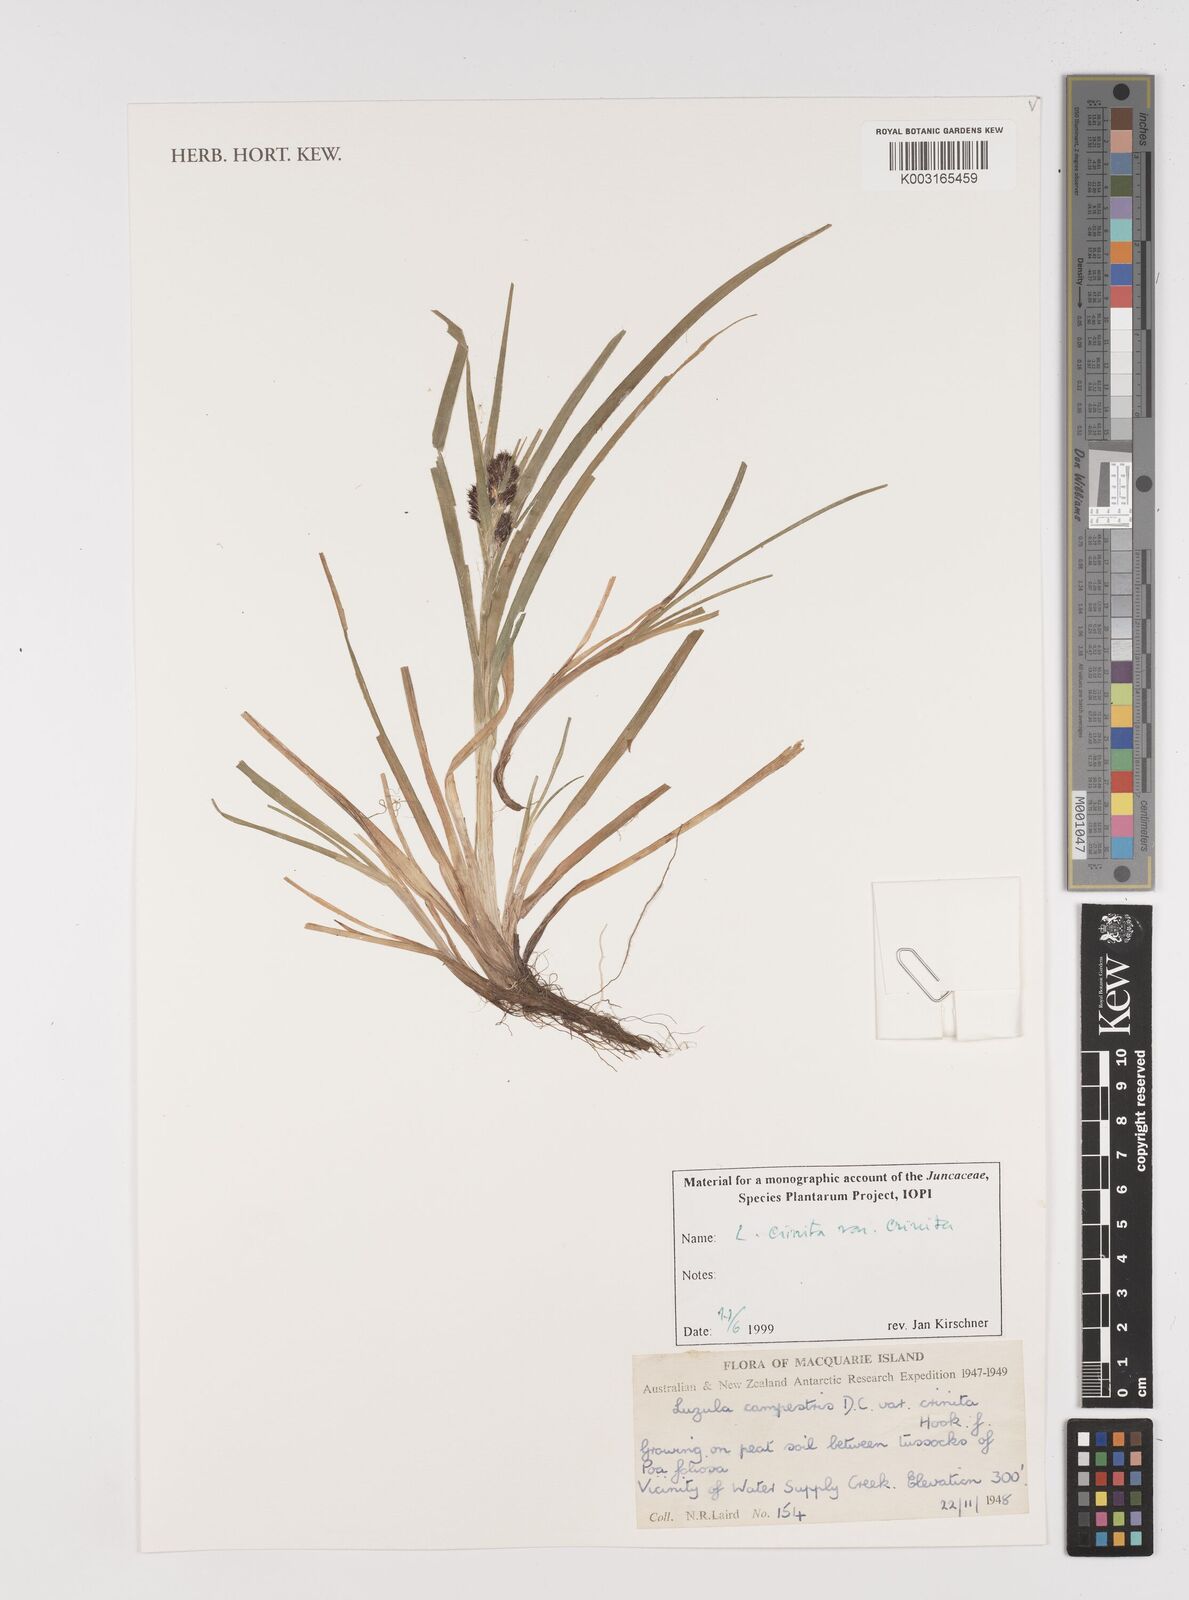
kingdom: Plantae
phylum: Tracheophyta
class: Liliopsida
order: Poales
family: Juncaceae
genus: Luzula
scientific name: Luzula crinita
